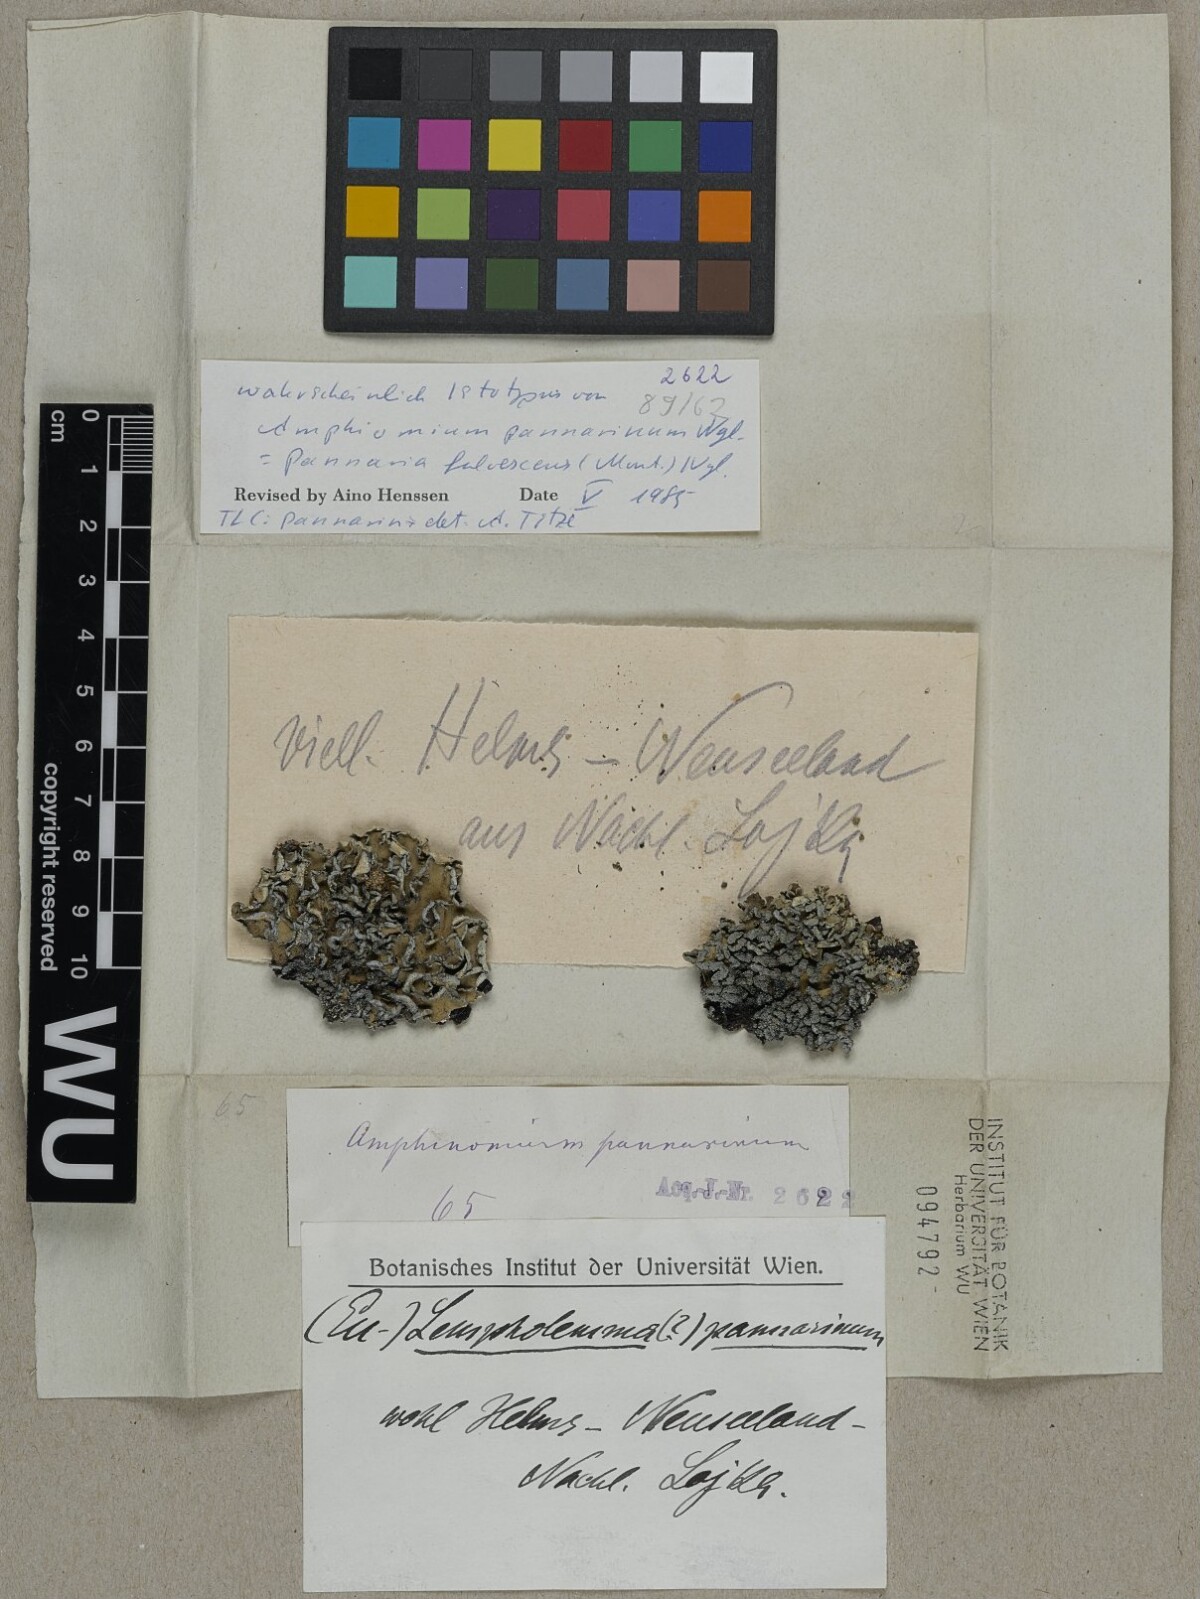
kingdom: Fungi
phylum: Ascomycota
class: Lecanoromycetes
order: Peltigerales
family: Pannariaceae
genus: Pannaria
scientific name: Pannaria
